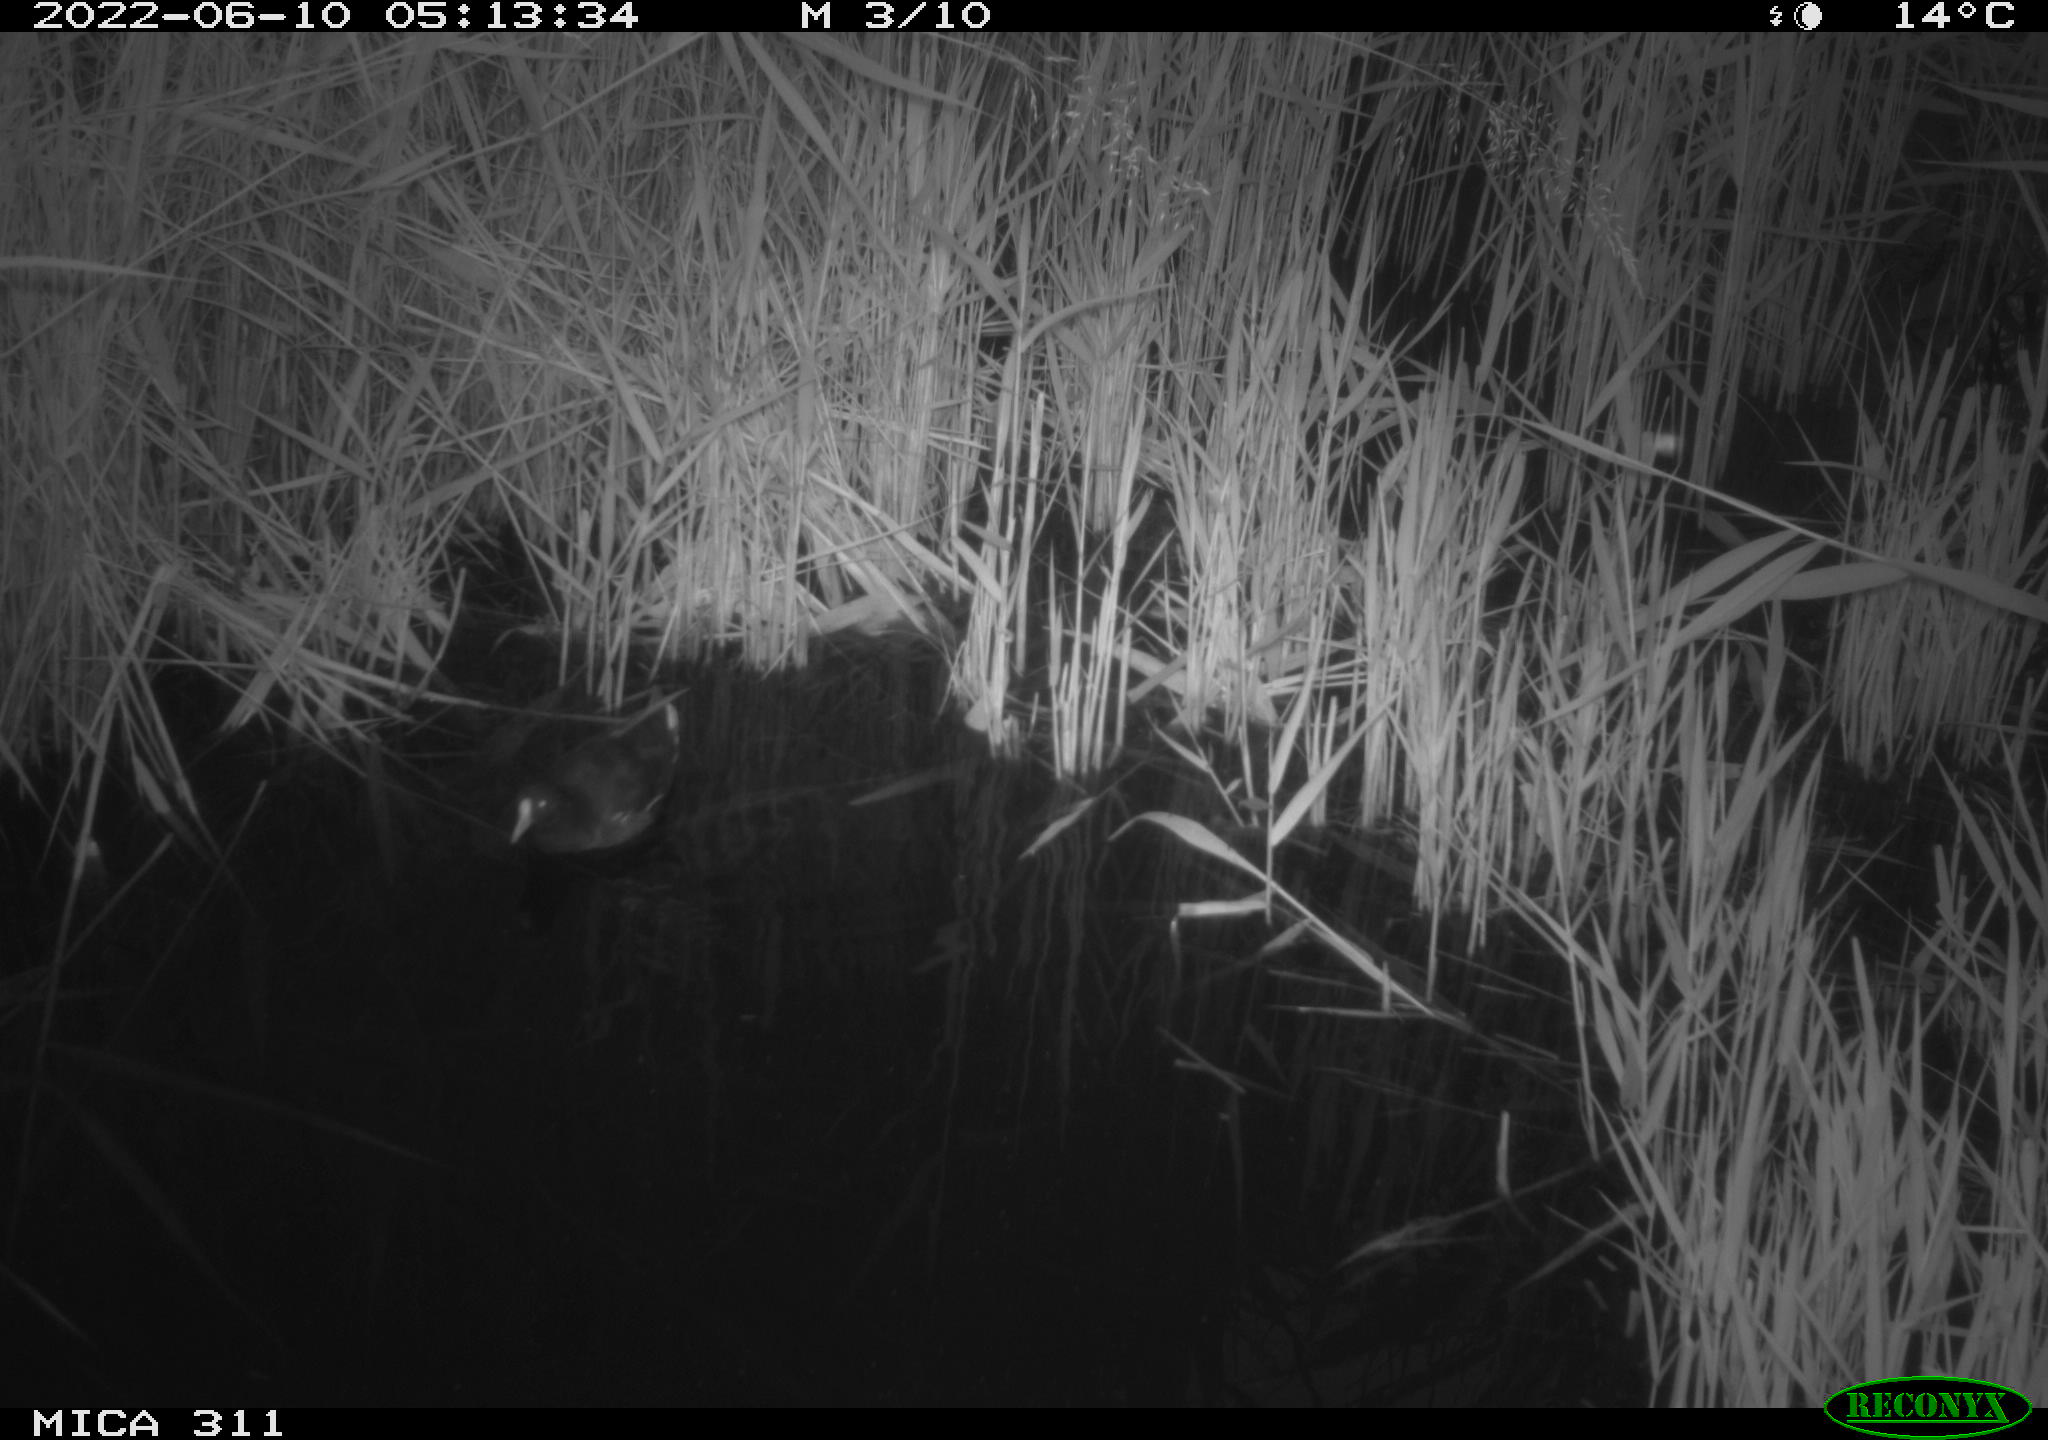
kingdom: Animalia
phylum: Chordata
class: Aves
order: Gruiformes
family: Rallidae
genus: Gallinula
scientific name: Gallinula chloropus
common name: Common moorhen
